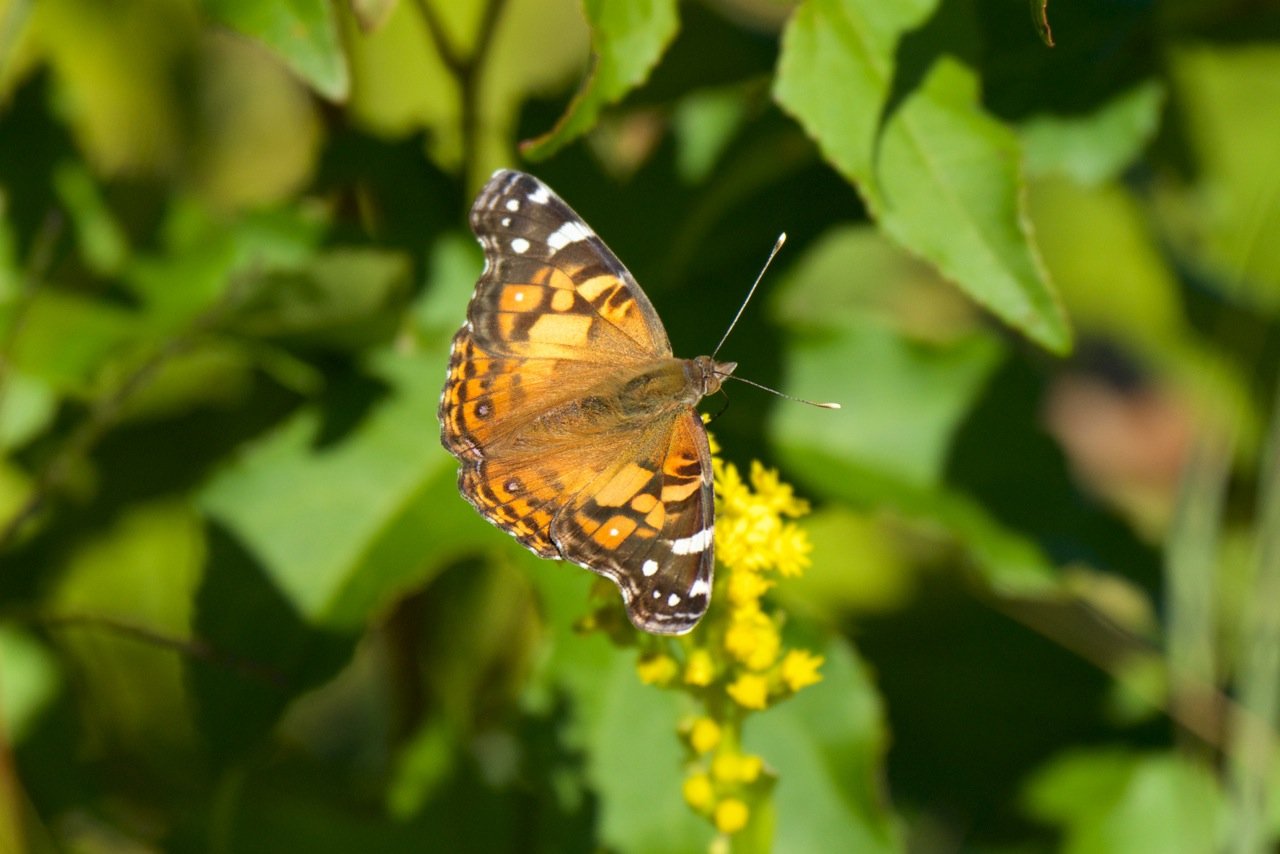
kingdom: Animalia
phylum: Arthropoda
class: Insecta
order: Lepidoptera
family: Nymphalidae
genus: Vanessa
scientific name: Vanessa virginiensis
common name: American Lady
